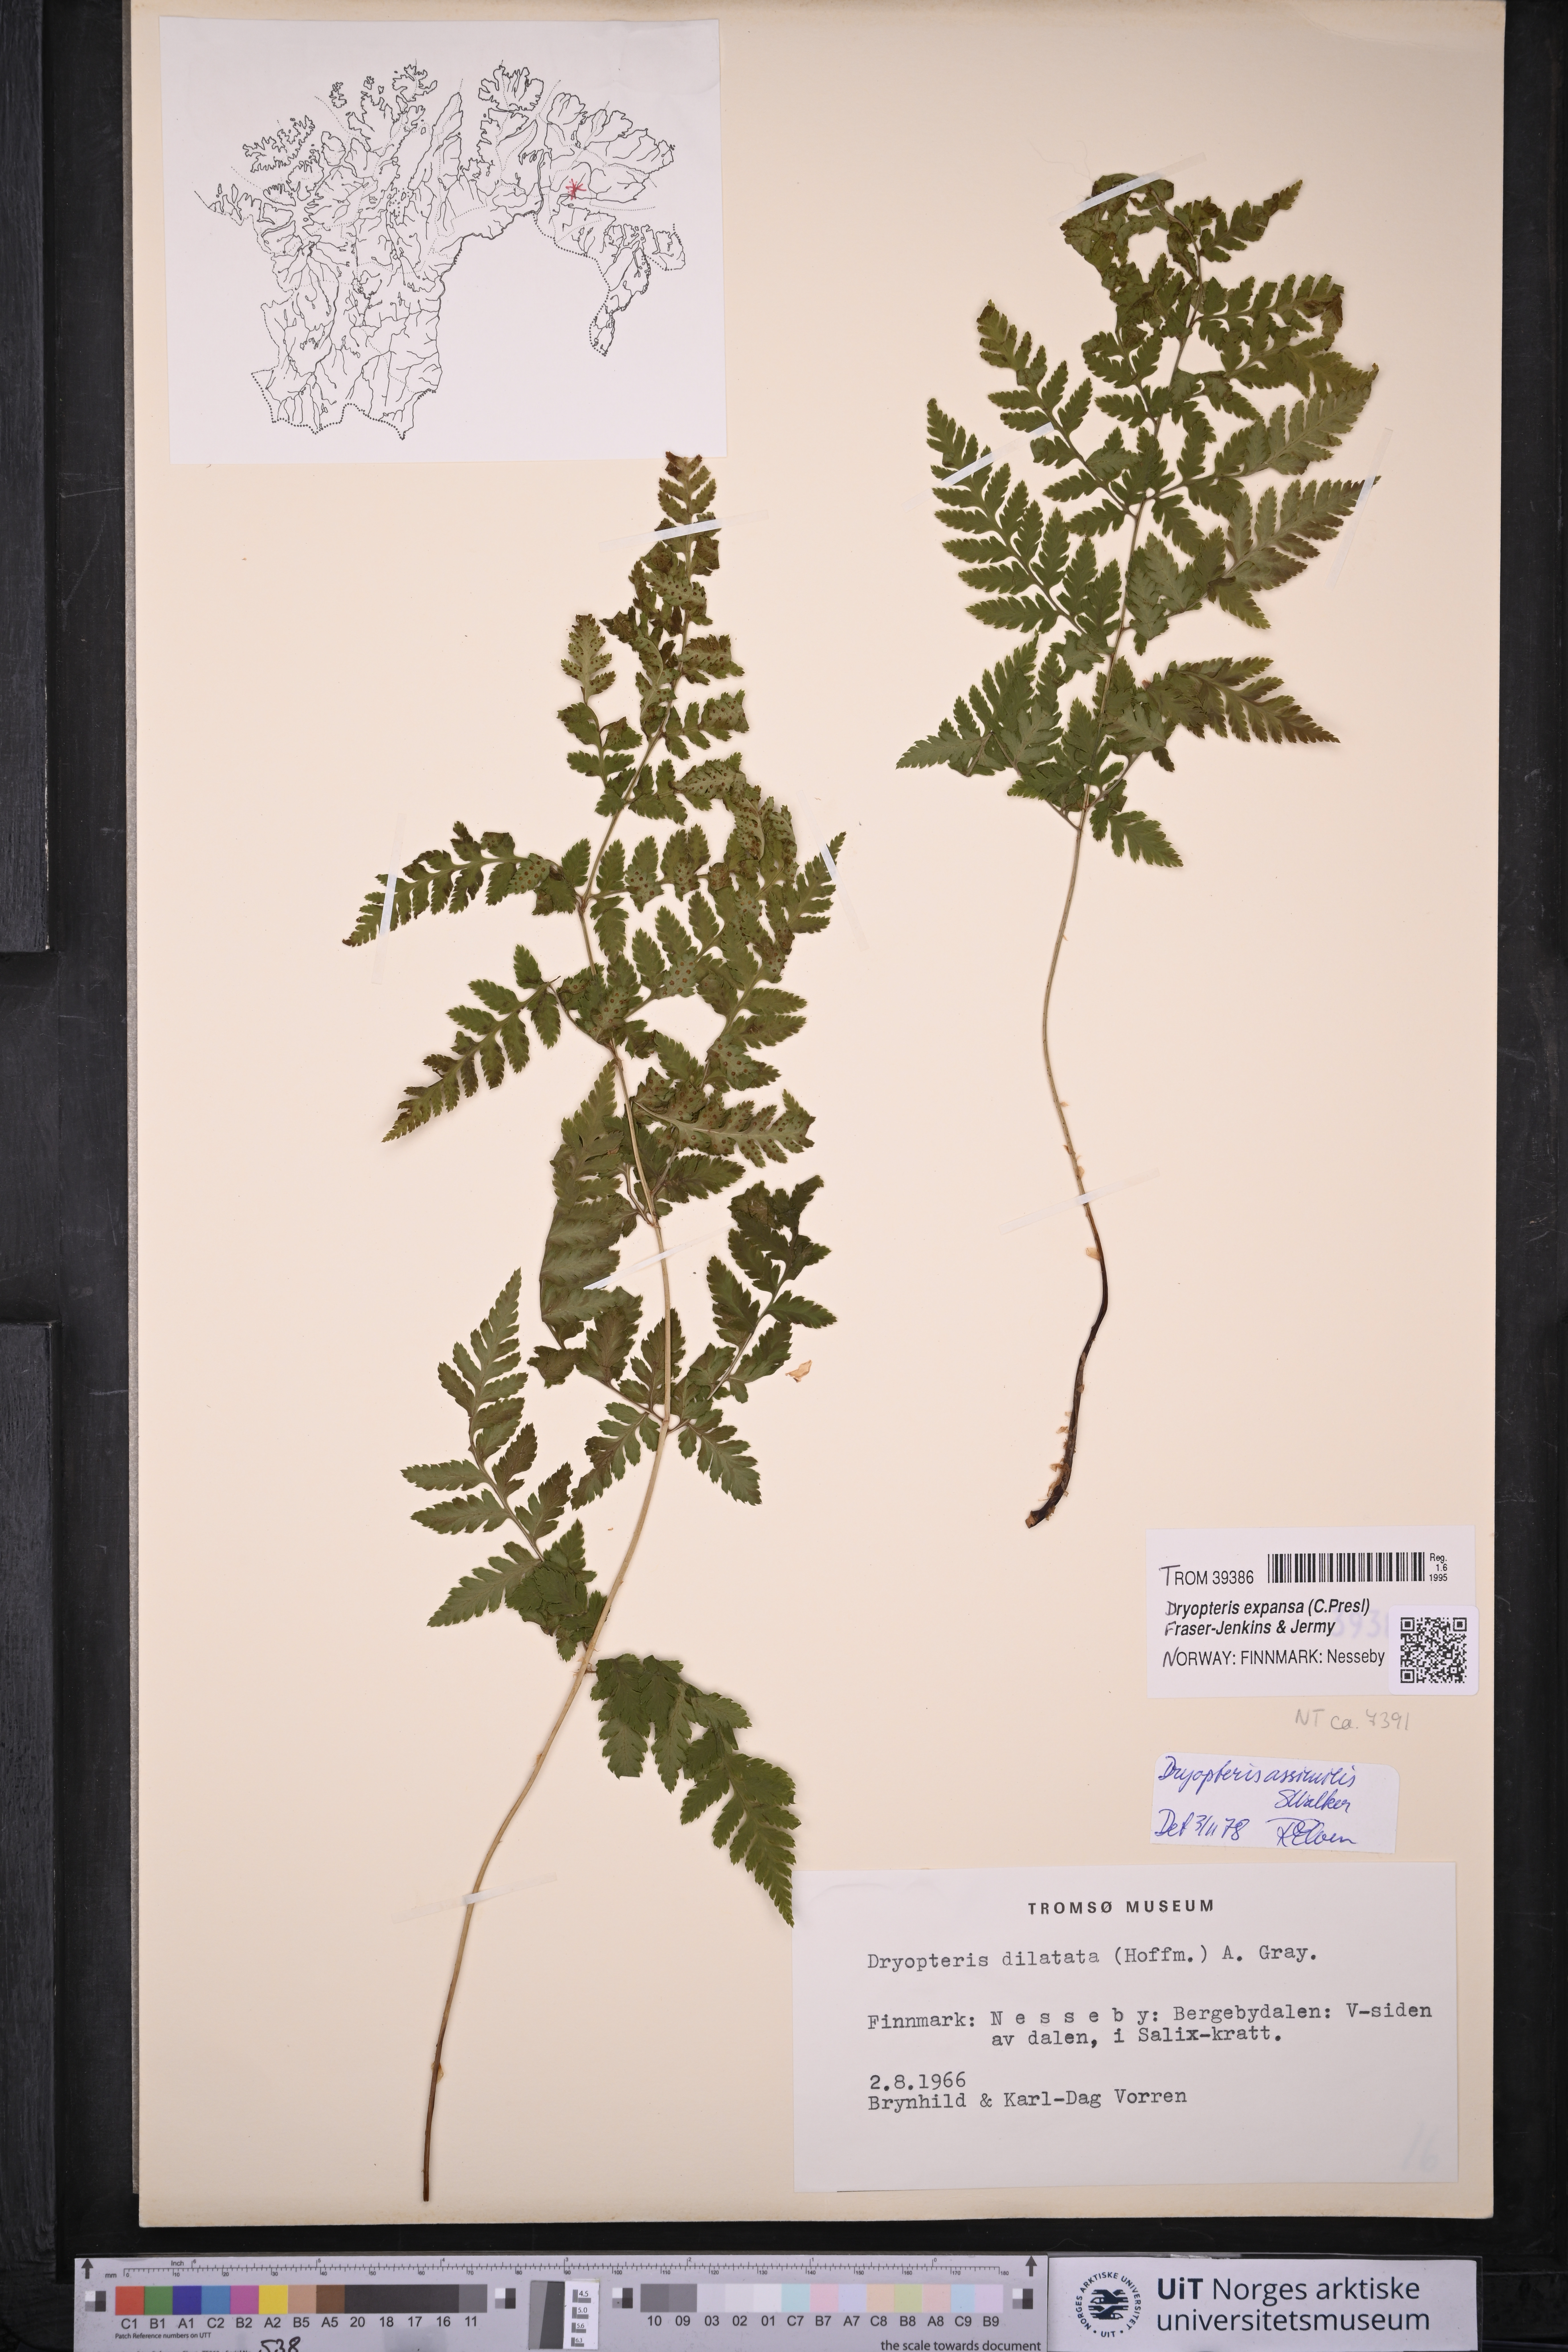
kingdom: Plantae
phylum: Tracheophyta
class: Polypodiopsida
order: Polypodiales
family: Dryopteridaceae
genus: Dryopteris
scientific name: Dryopteris expansa
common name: Northern buckler fern
